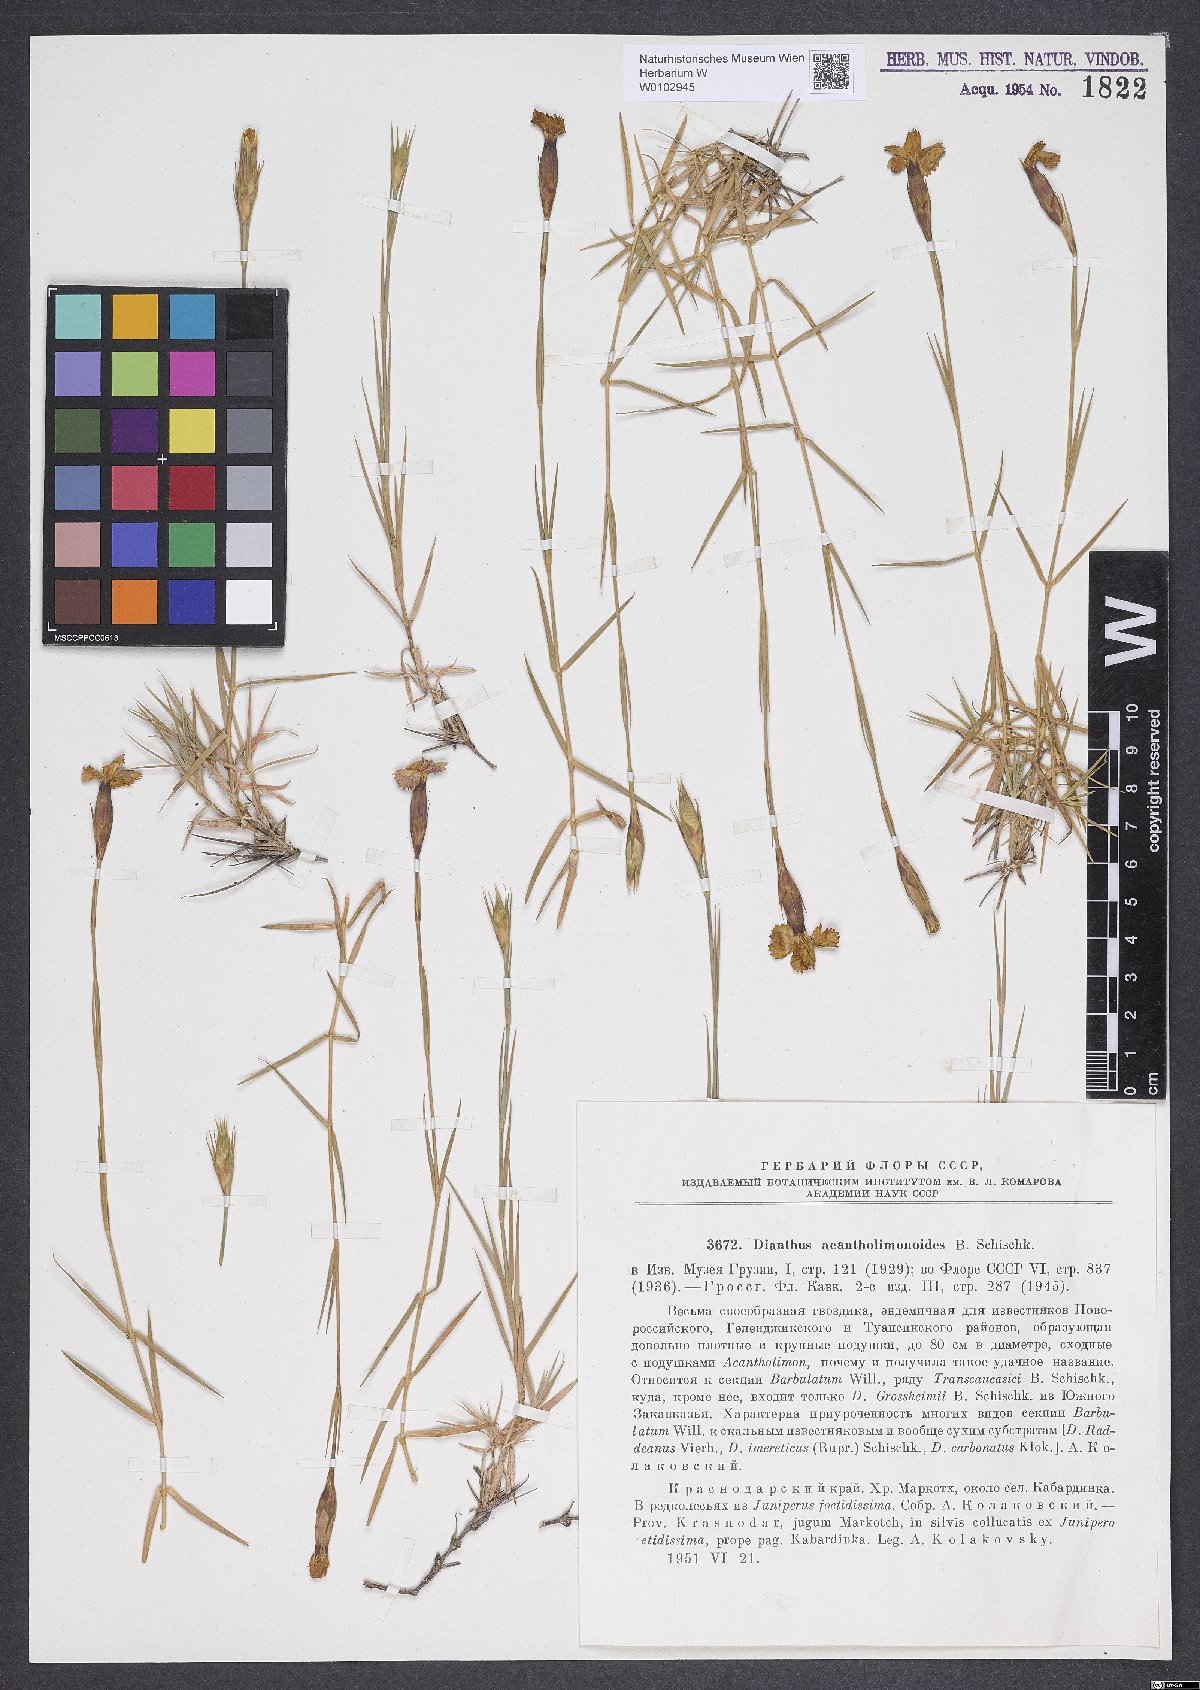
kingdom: Plantae
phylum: Tracheophyta
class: Magnoliopsida
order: Caryophyllales
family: Caryophyllaceae
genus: Dianthus
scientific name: Dianthus acantholimonoides
